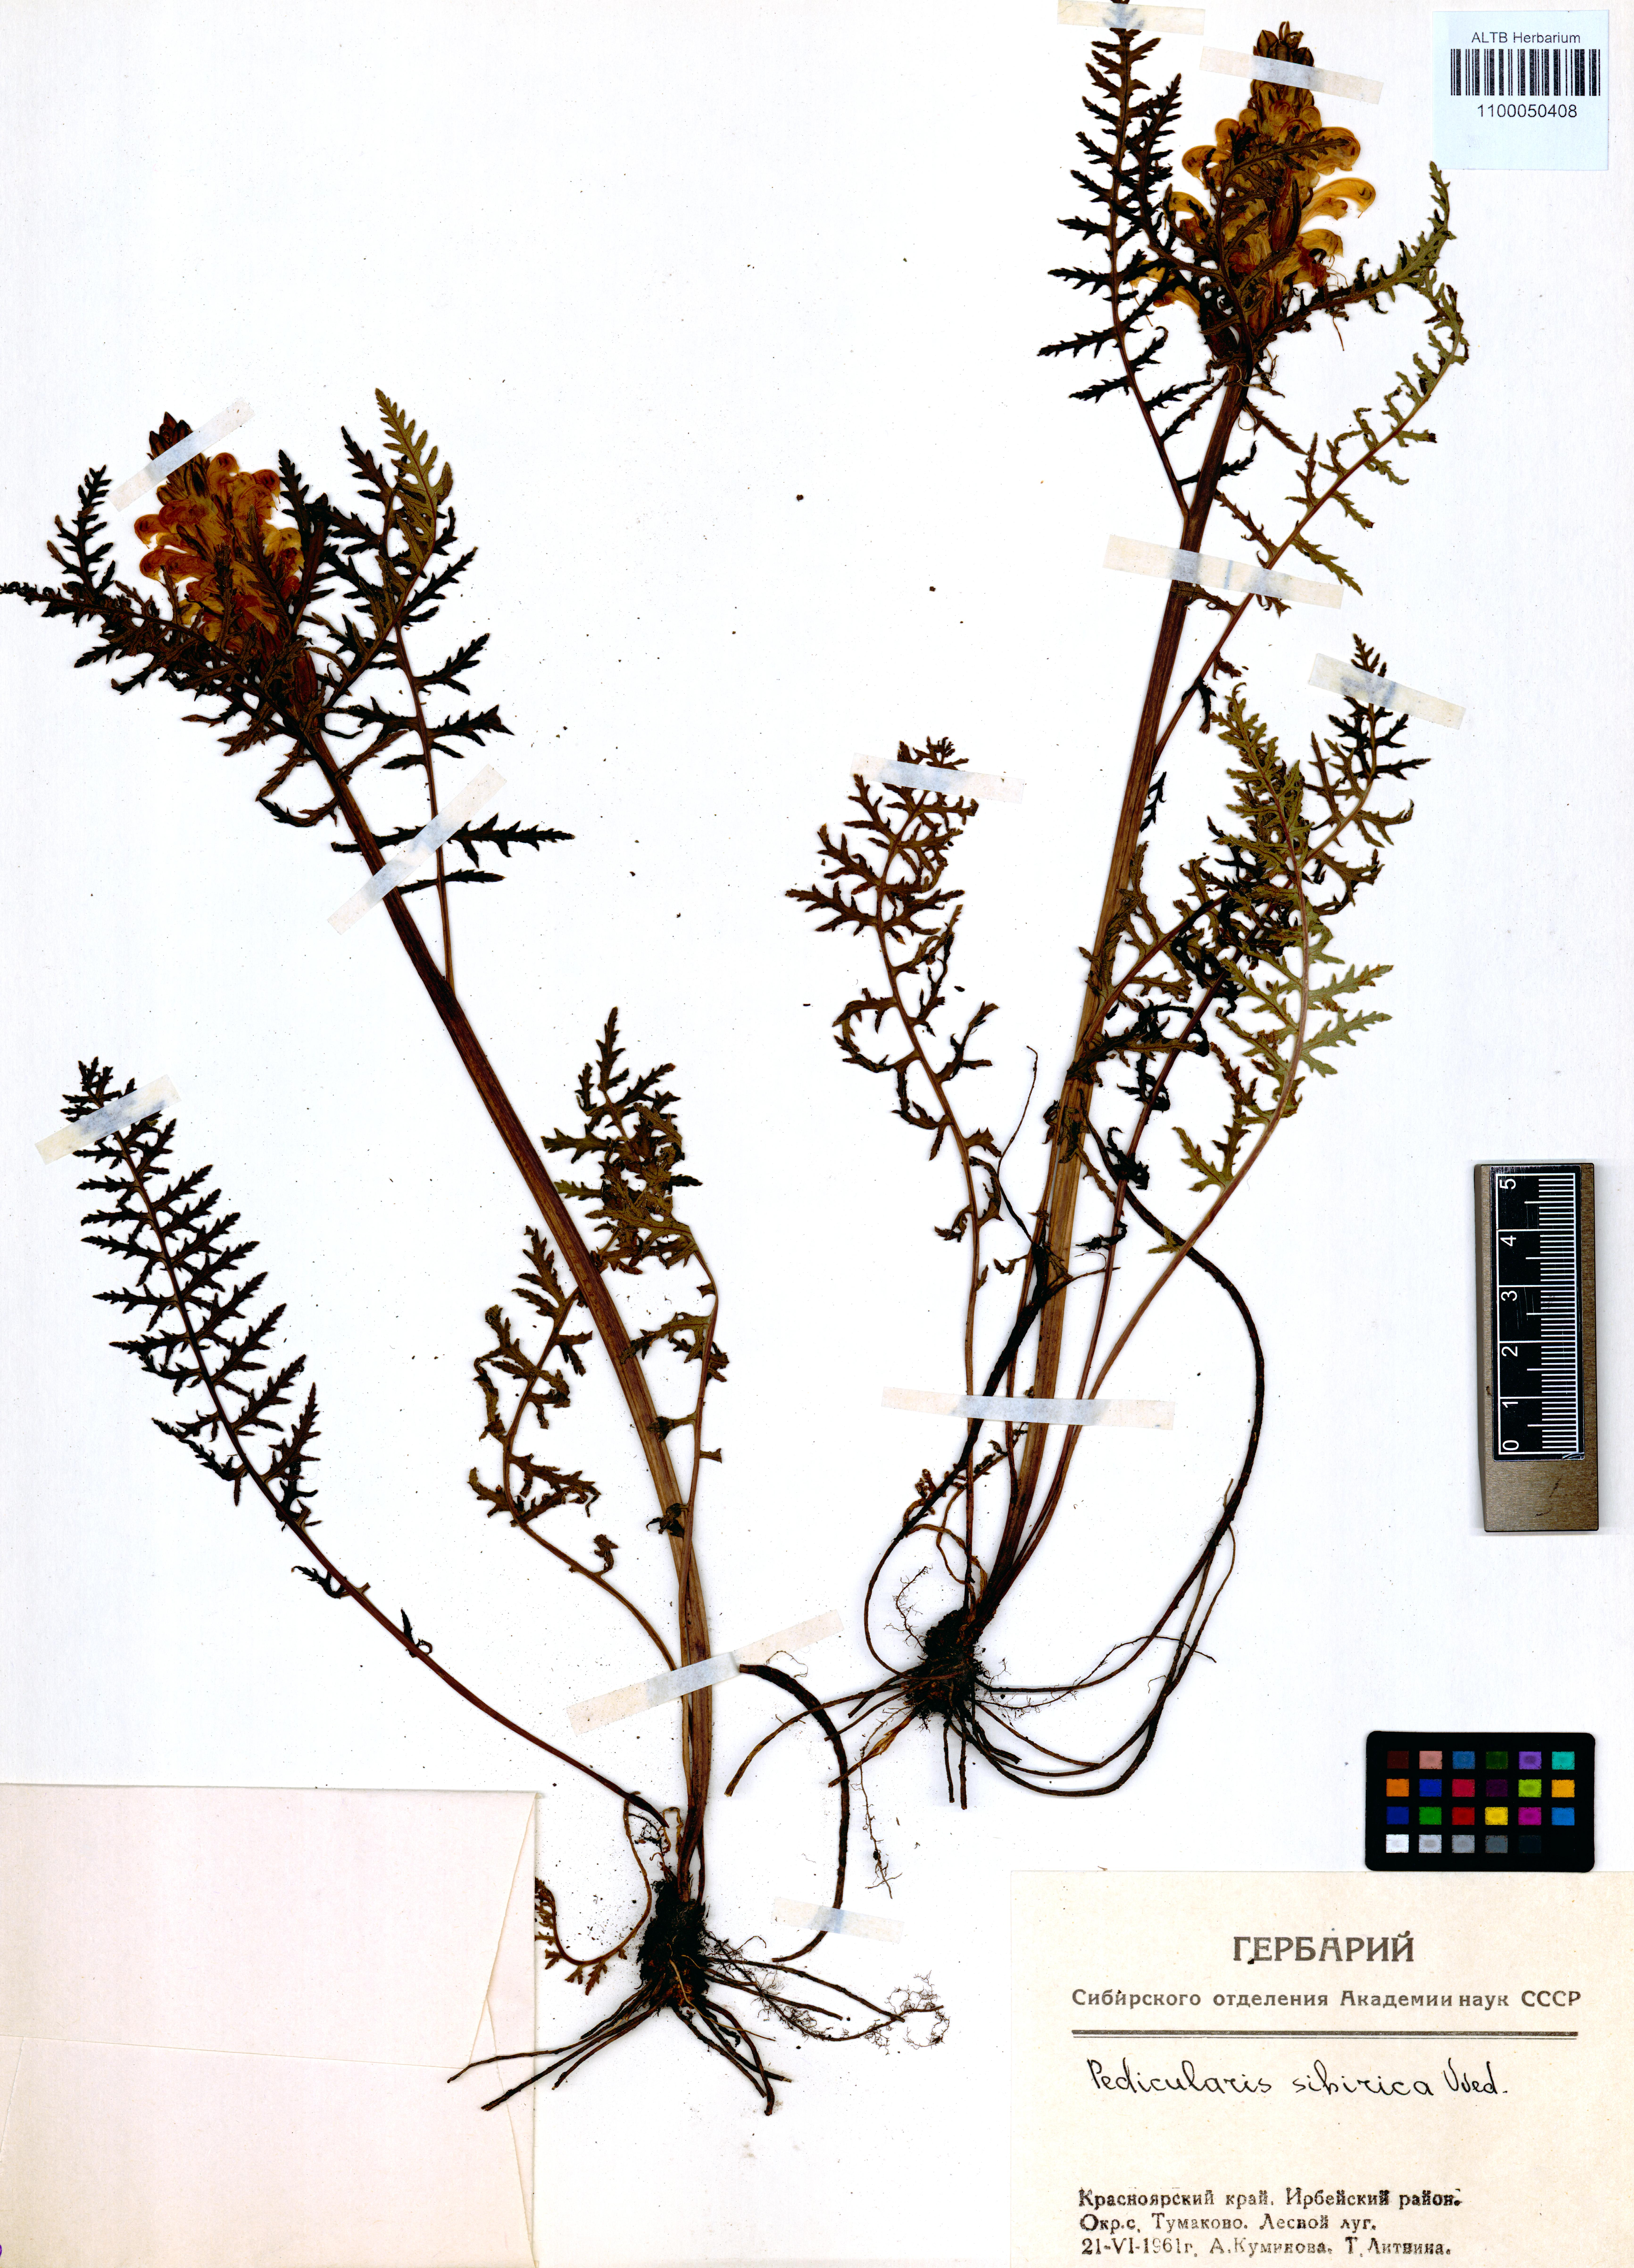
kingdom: Plantae
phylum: Tracheophyta
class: Magnoliopsida
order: Lamiales
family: Orobanchaceae
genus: Pedicularis
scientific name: Pedicularis sibirica
